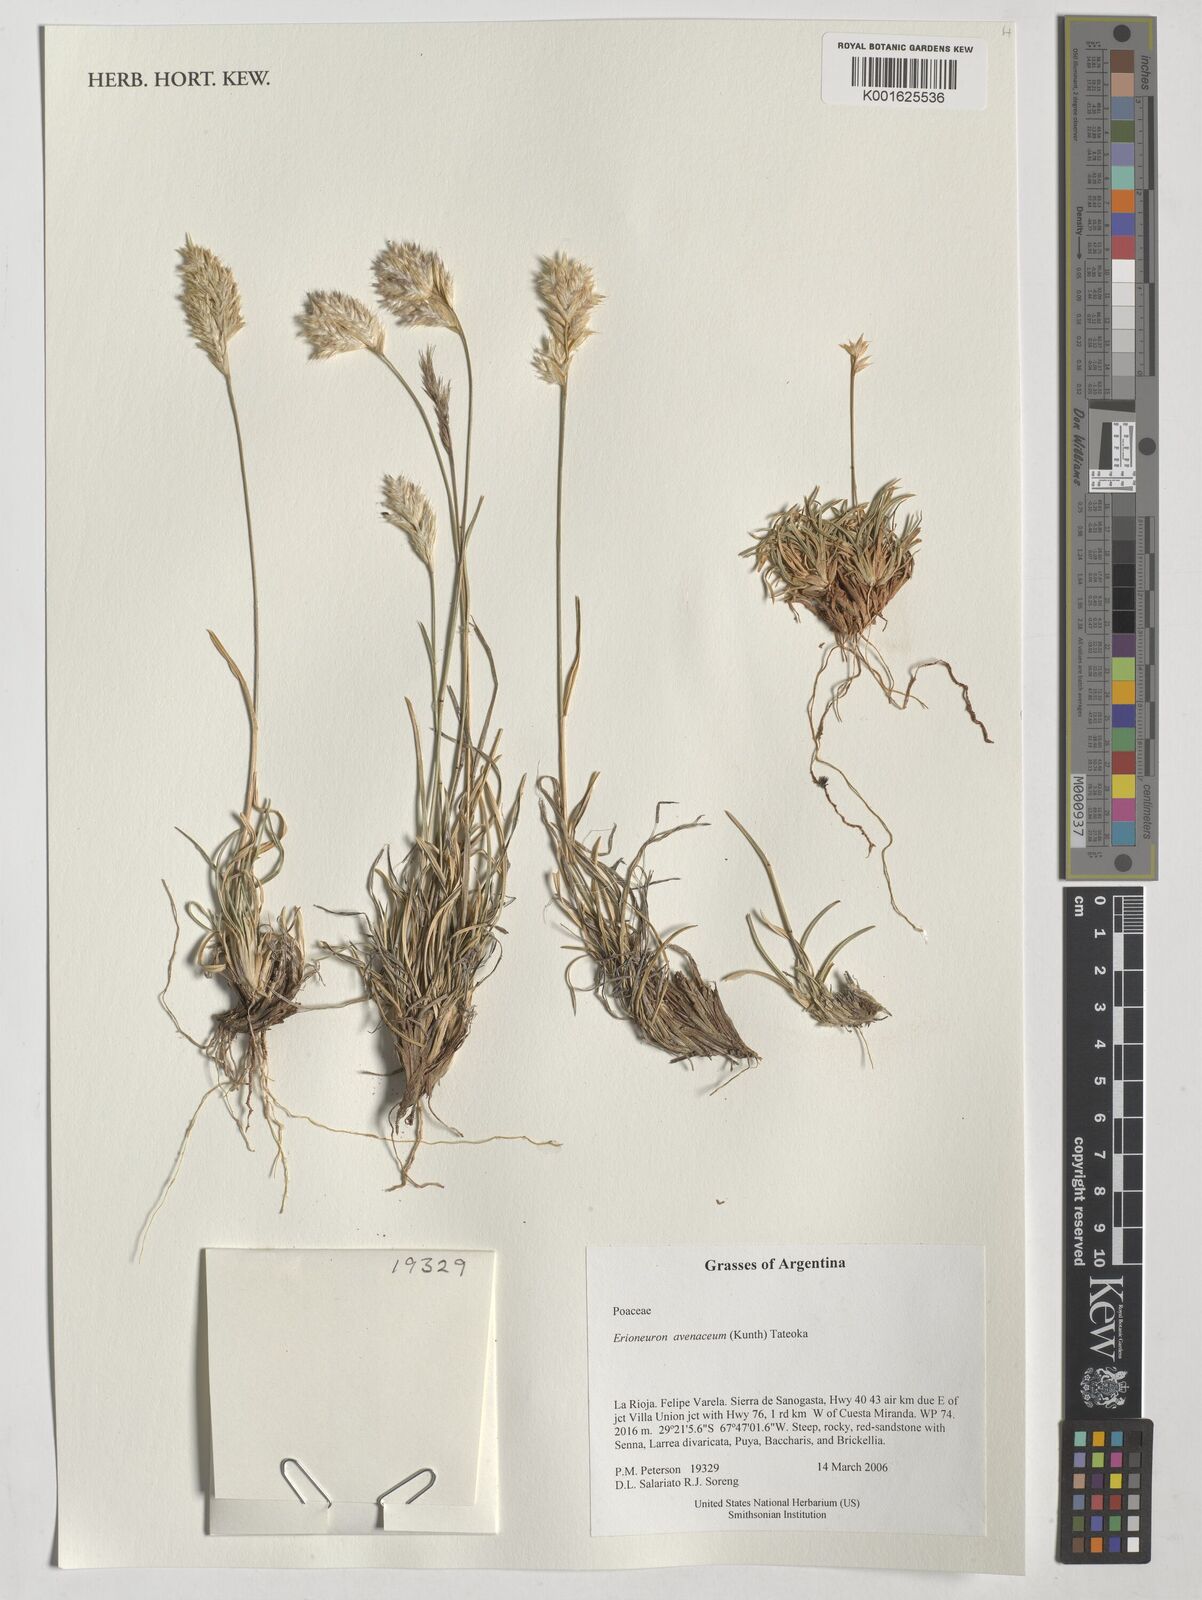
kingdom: Plantae
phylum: Tracheophyta
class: Liliopsida
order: Poales
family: Poaceae
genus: Erioneuron
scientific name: Erioneuron avenaceum
